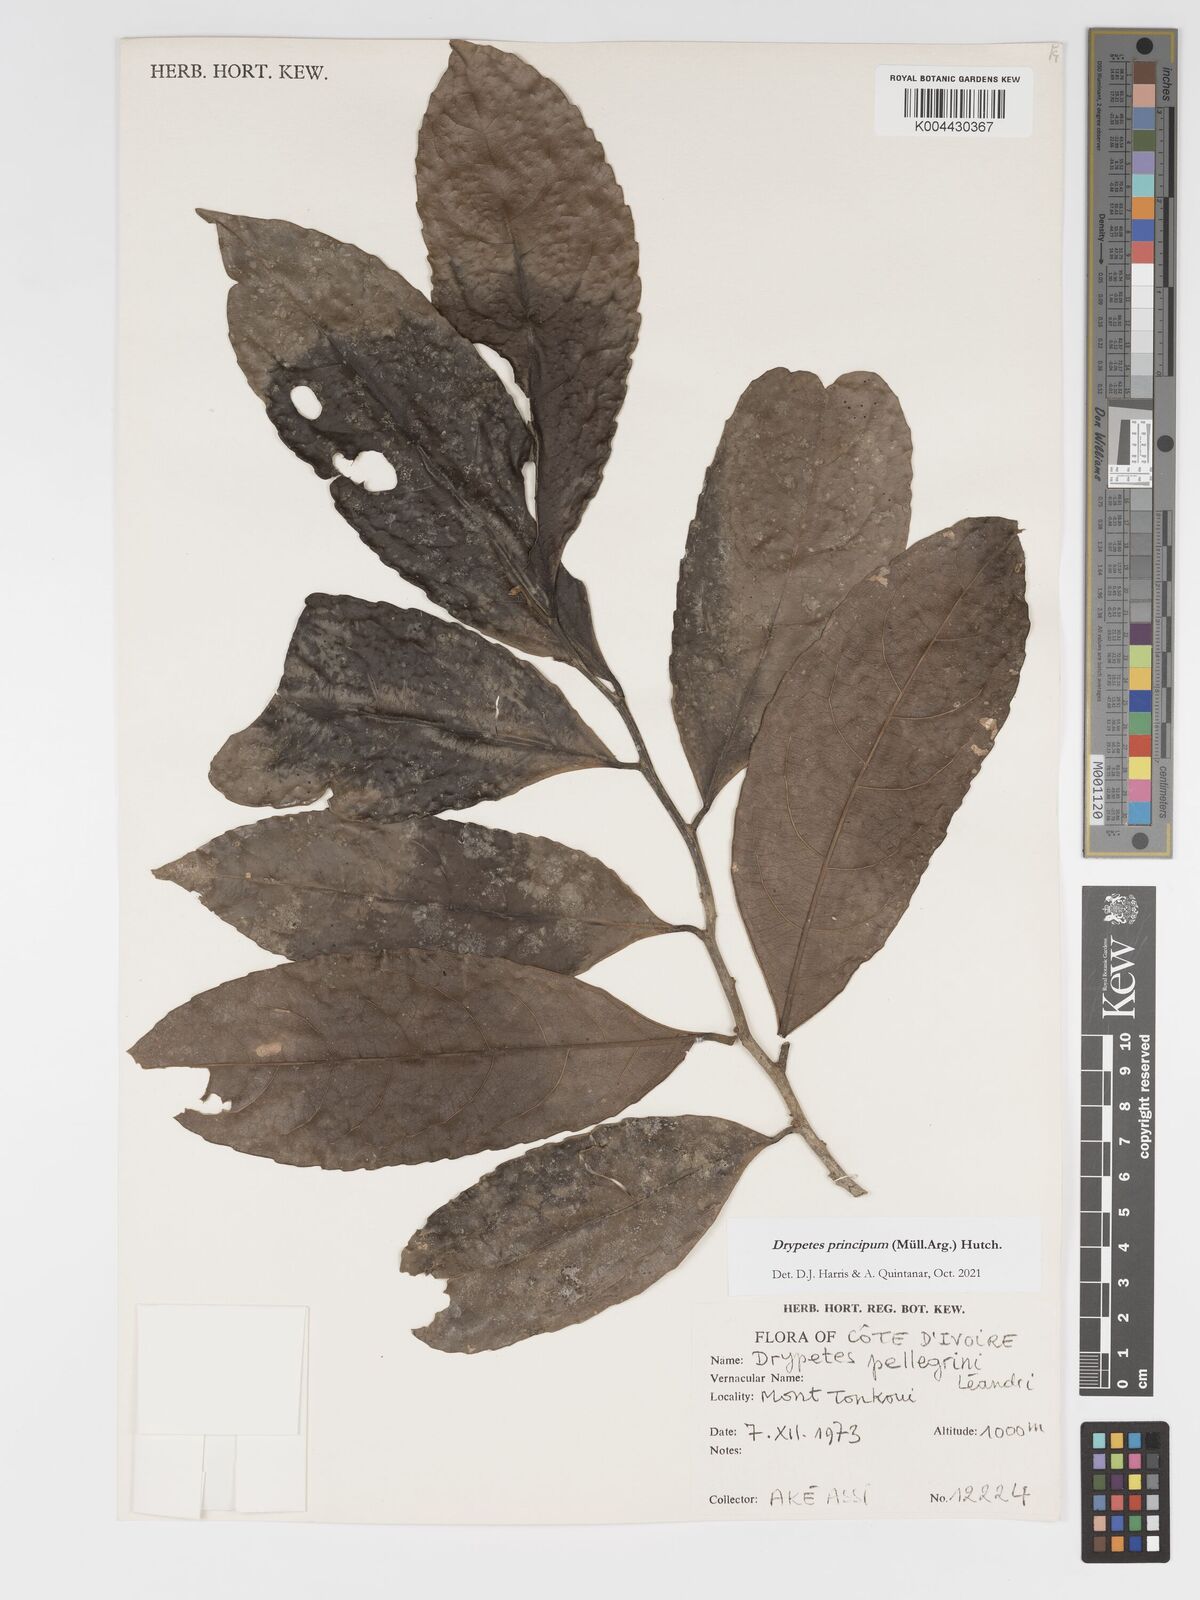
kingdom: Plantae
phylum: Tracheophyta
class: Magnoliopsida
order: Malpighiales
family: Putranjivaceae
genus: Drypetes
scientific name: Drypetes principum
